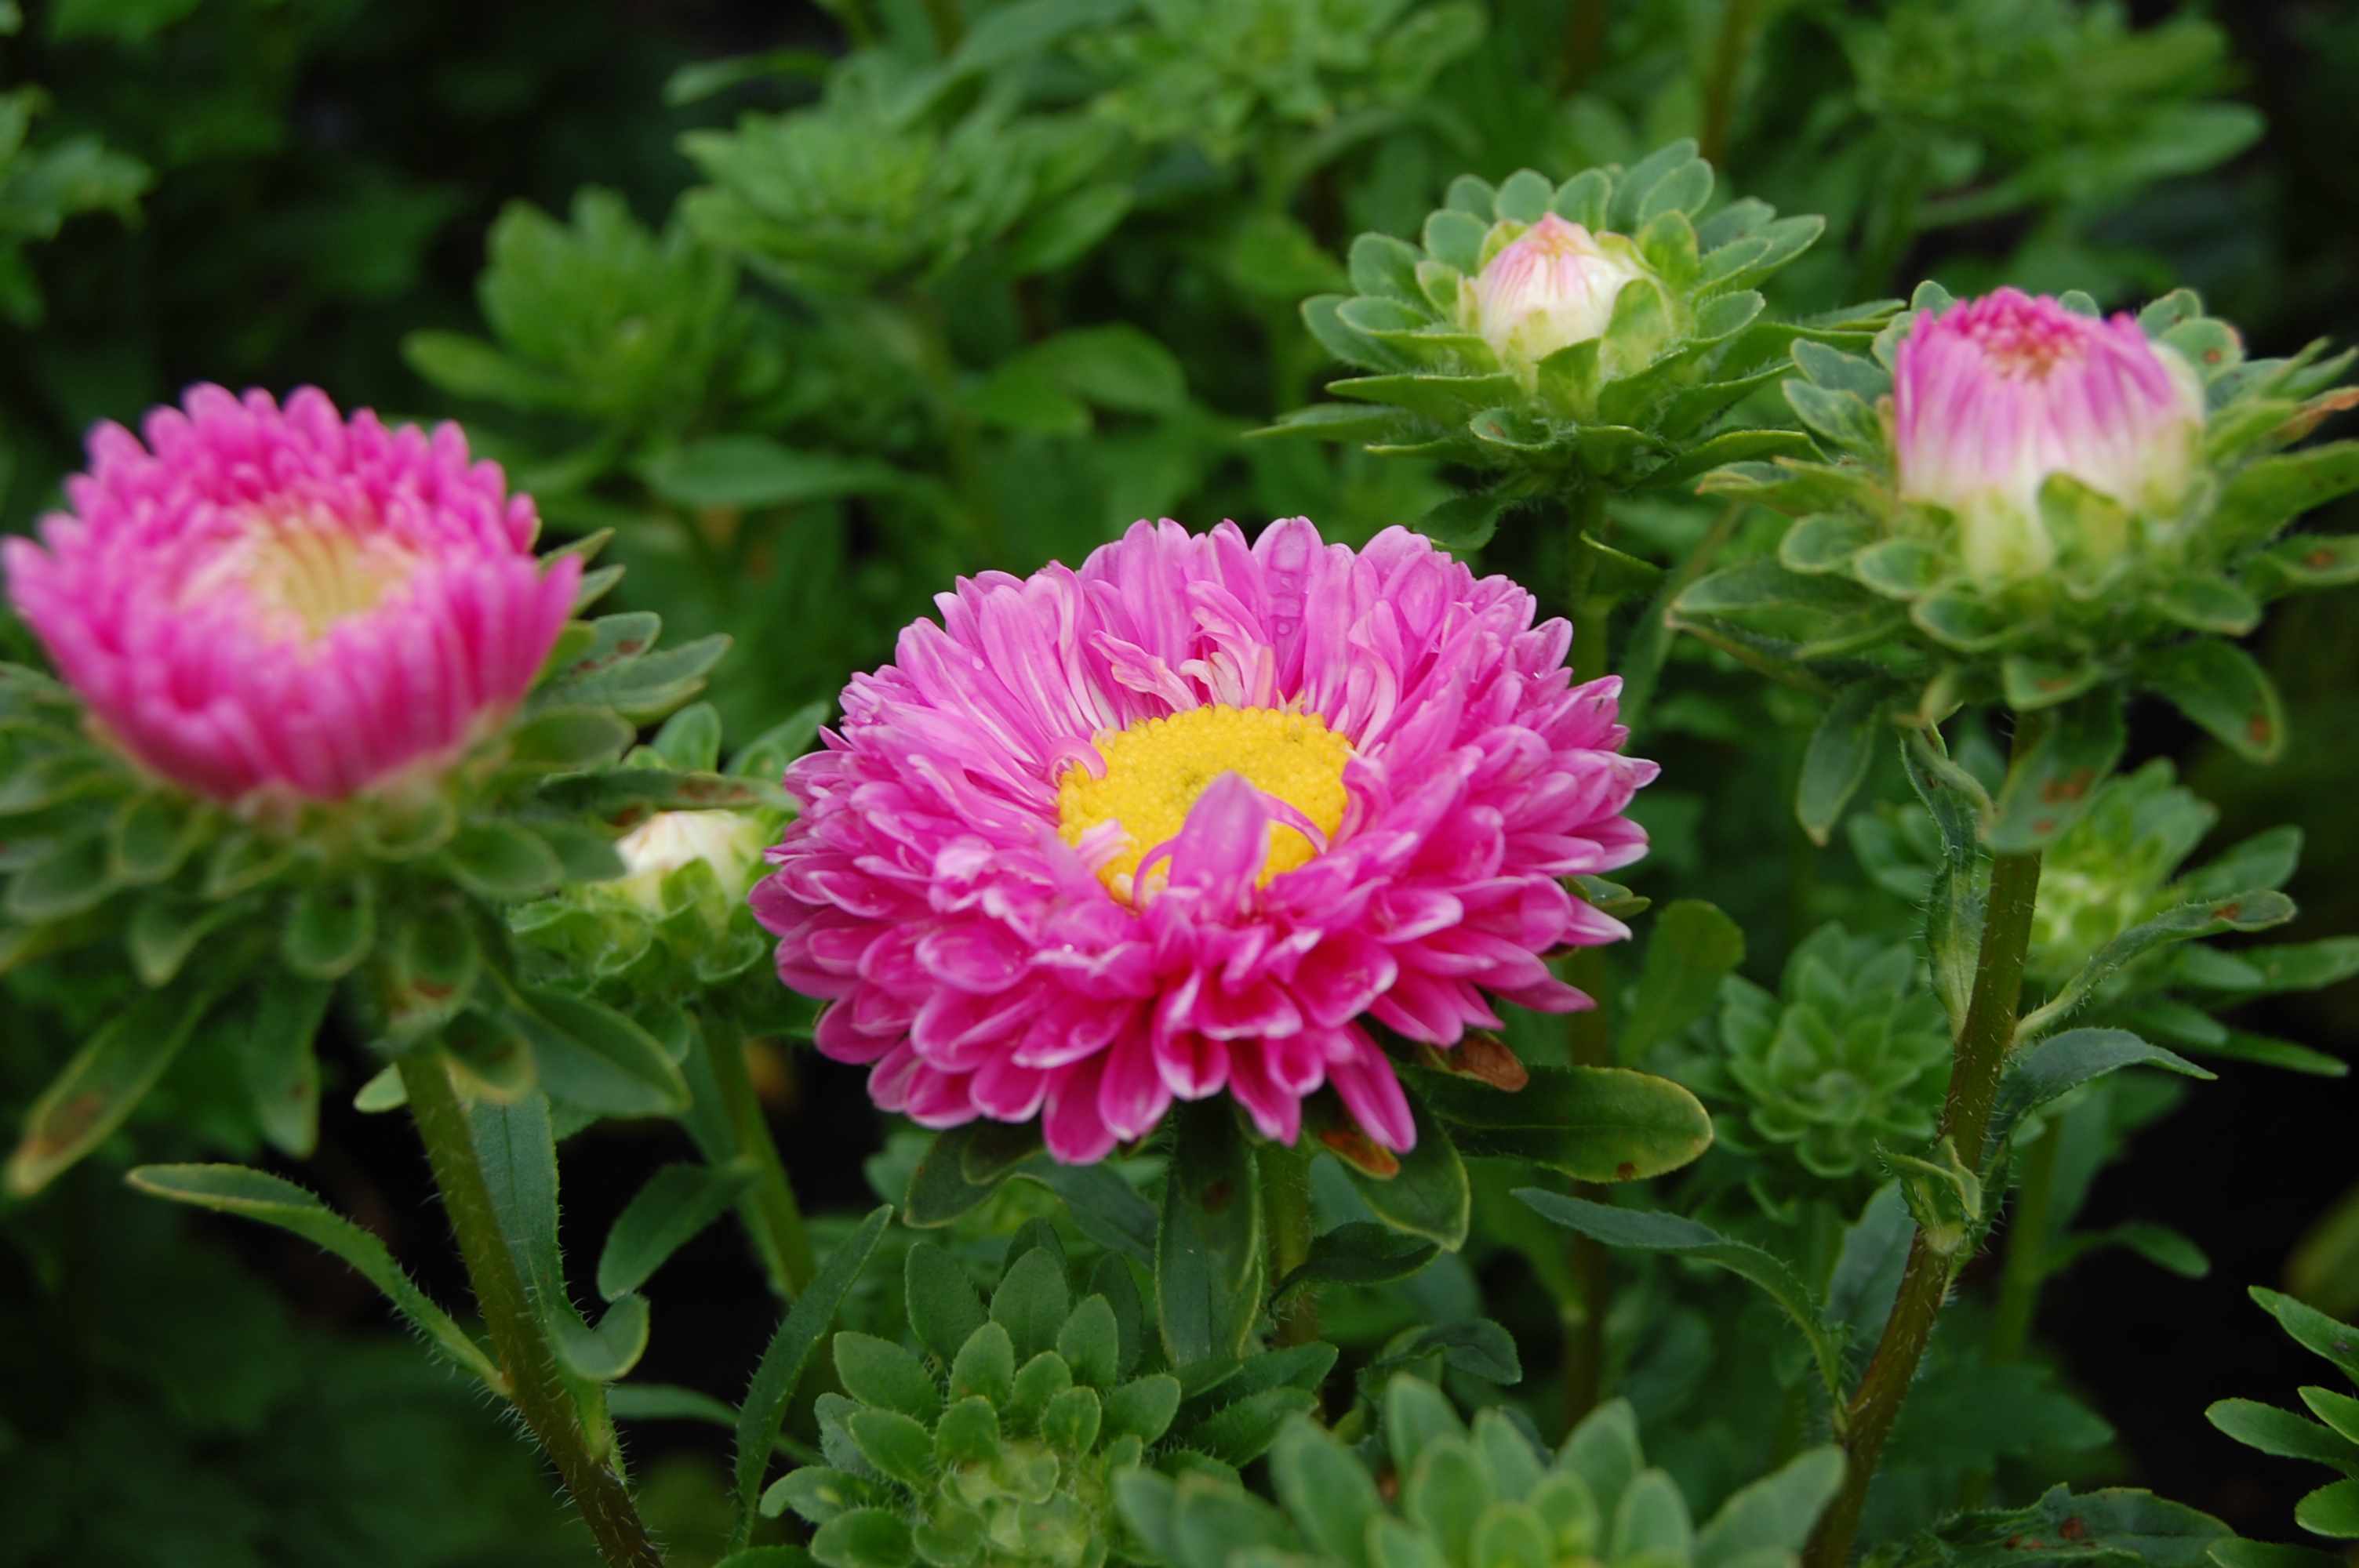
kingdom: Plantae
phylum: Tracheophyta
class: Magnoliopsida
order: Asterales
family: Asteraceae
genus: Callistephus
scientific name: Callistephus chinensis
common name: China aster
